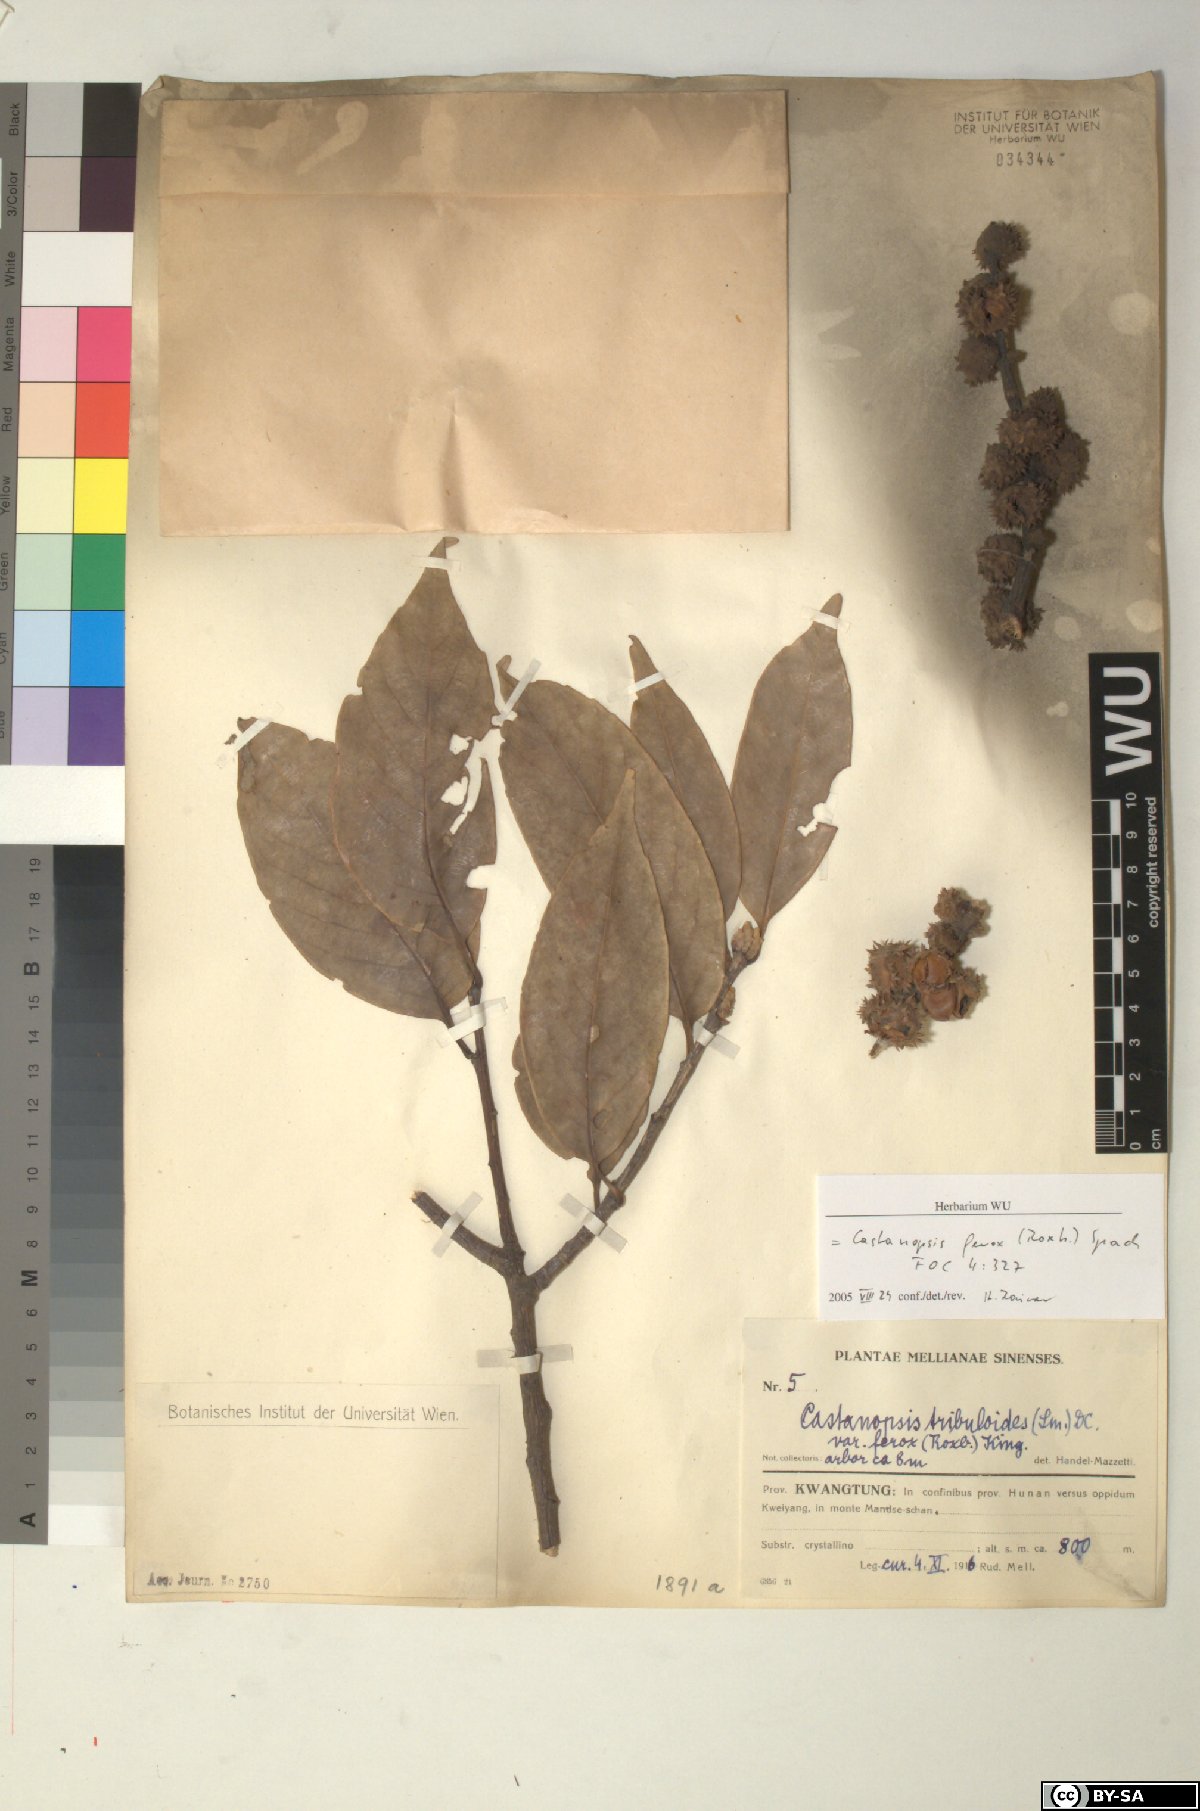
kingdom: Plantae
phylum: Tracheophyta
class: Magnoliopsida
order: Fagales
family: Fagaceae
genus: Castanopsis
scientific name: Castanopsis ferox
